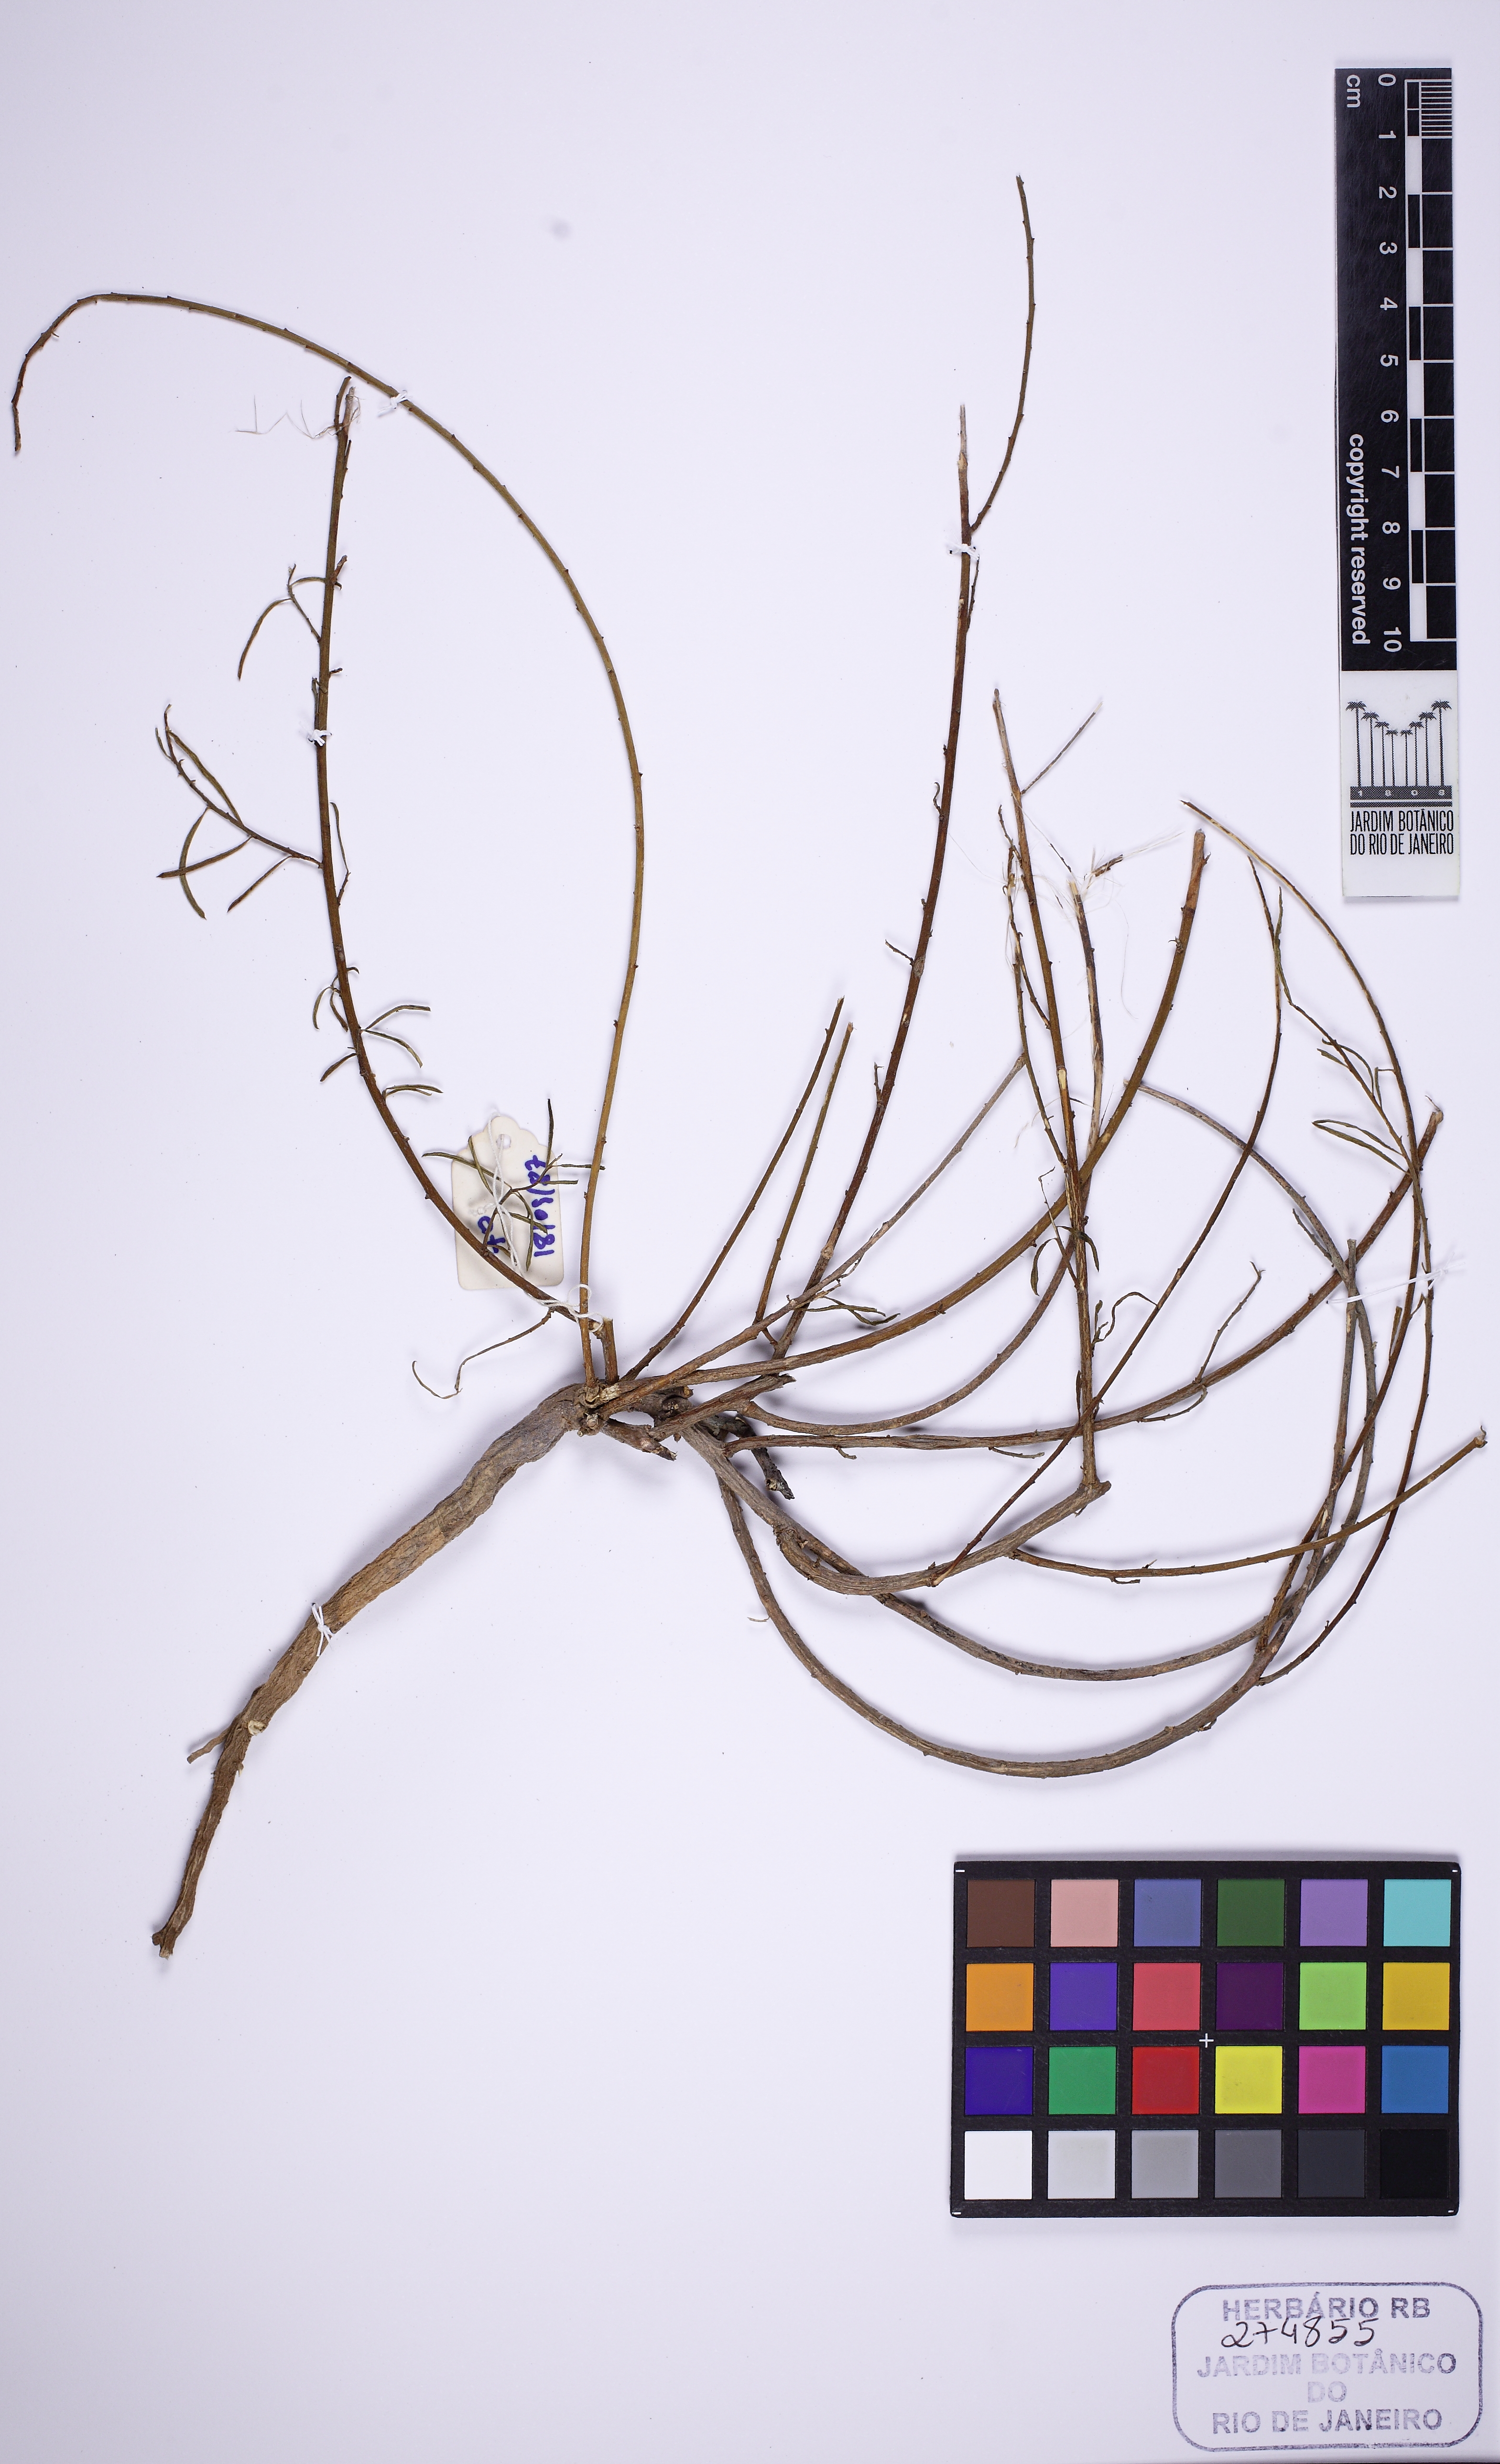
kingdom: Plantae
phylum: Tracheophyta
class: Magnoliopsida
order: Fabales
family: Polygalaceae
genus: Monnina
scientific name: Monnina itapoanensis
